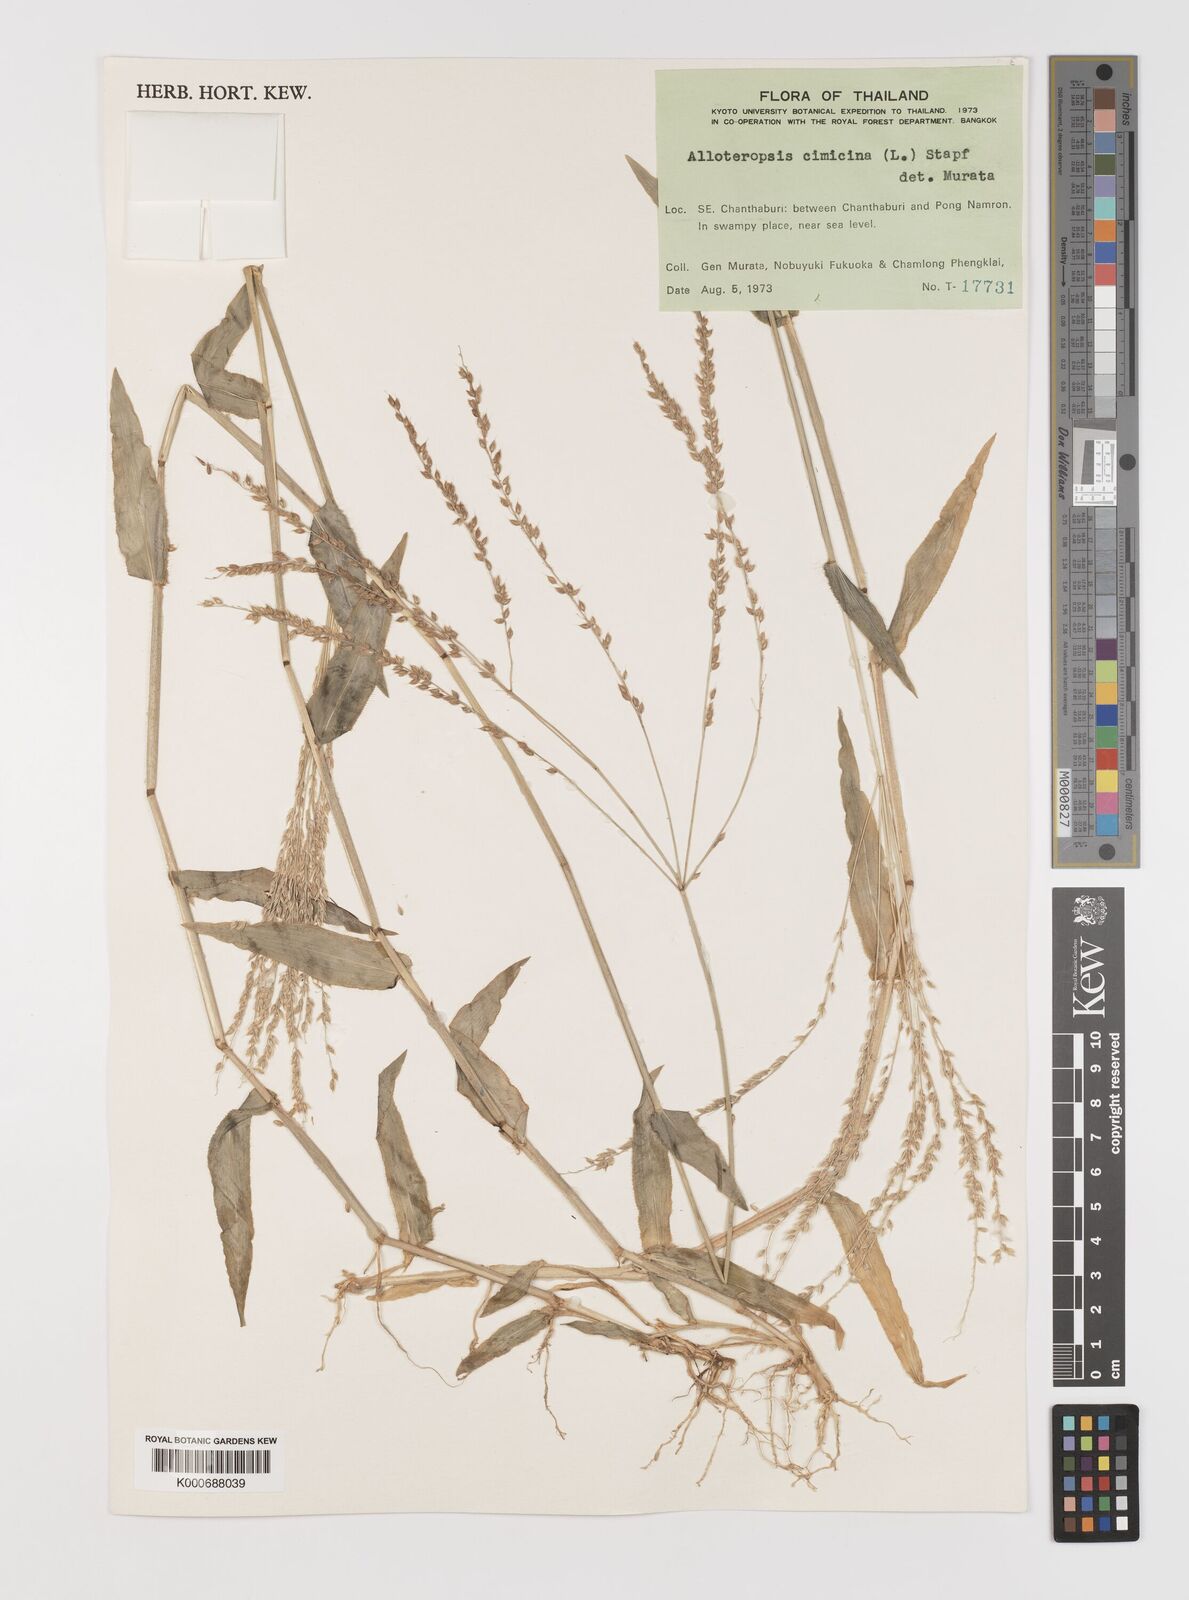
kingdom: Plantae
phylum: Tracheophyta
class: Liliopsida
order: Poales
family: Poaceae
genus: Alloteropsis
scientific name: Alloteropsis cimicina
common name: Summergrass
